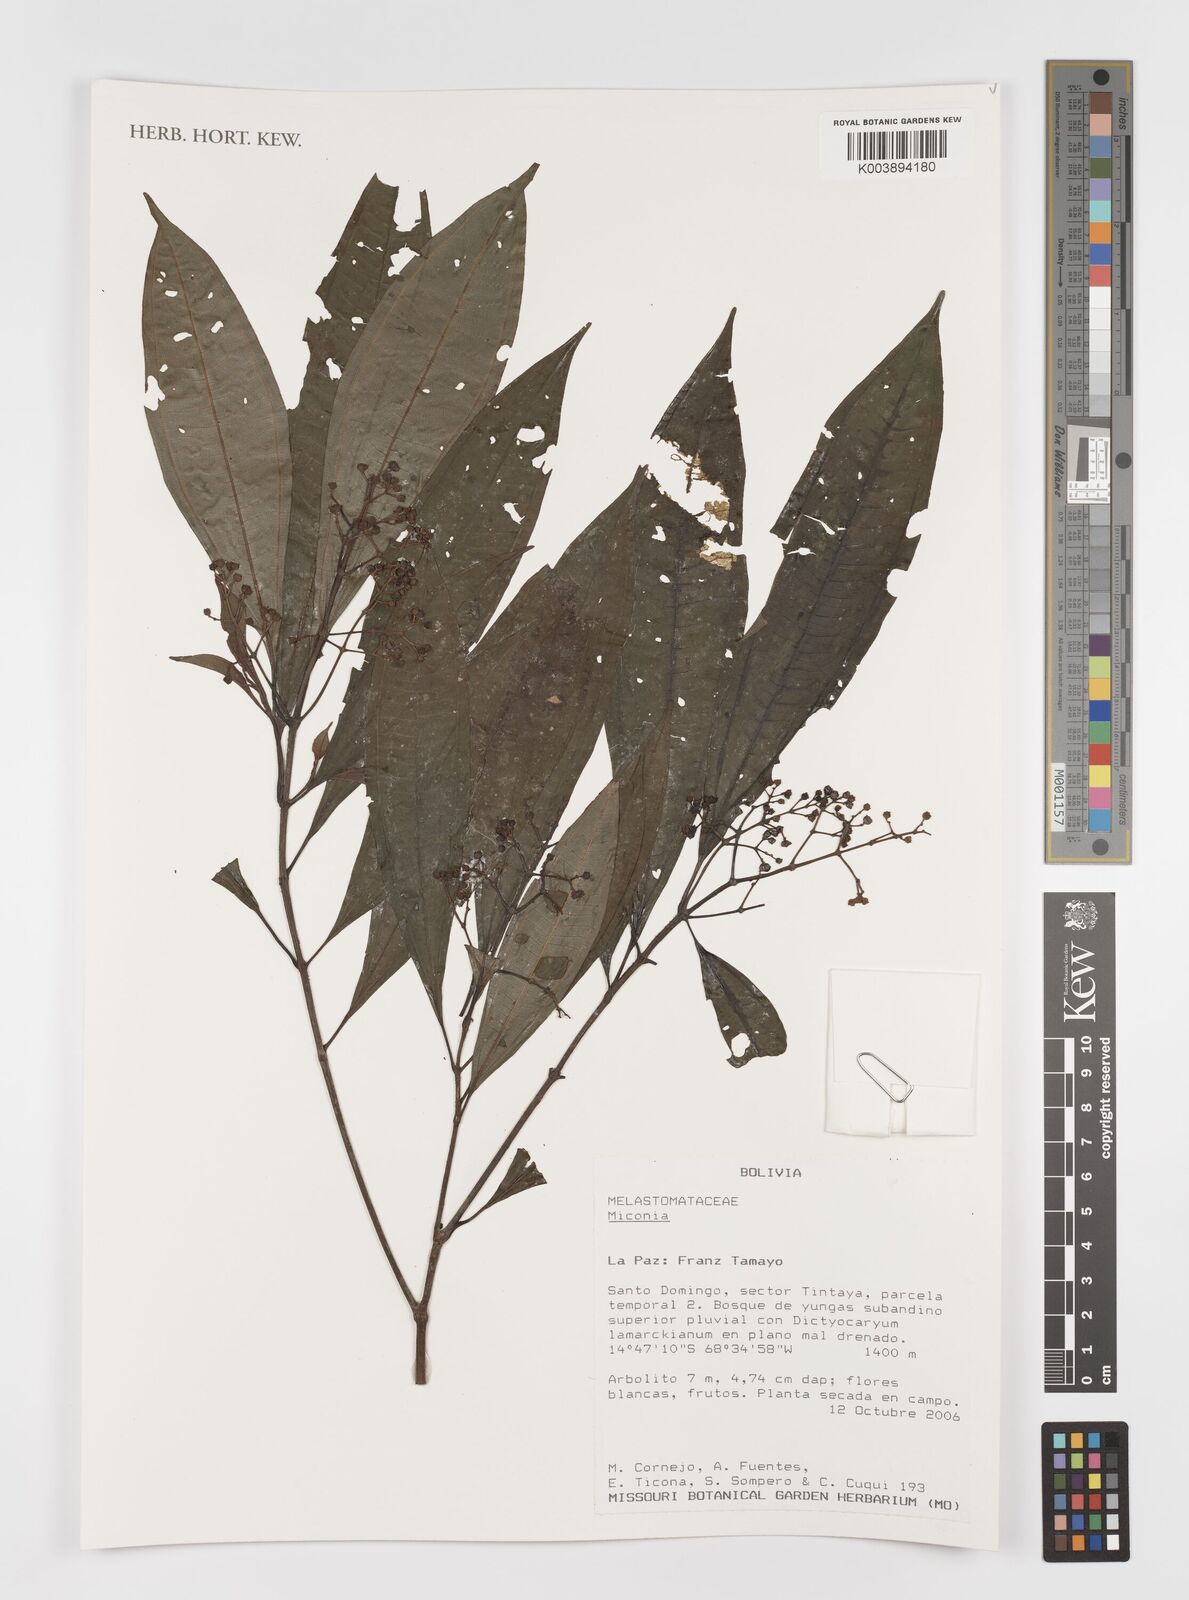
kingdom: Plantae
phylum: Tracheophyta
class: Magnoliopsida
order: Myrtales
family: Melastomataceae
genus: Miconia
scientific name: Miconia
